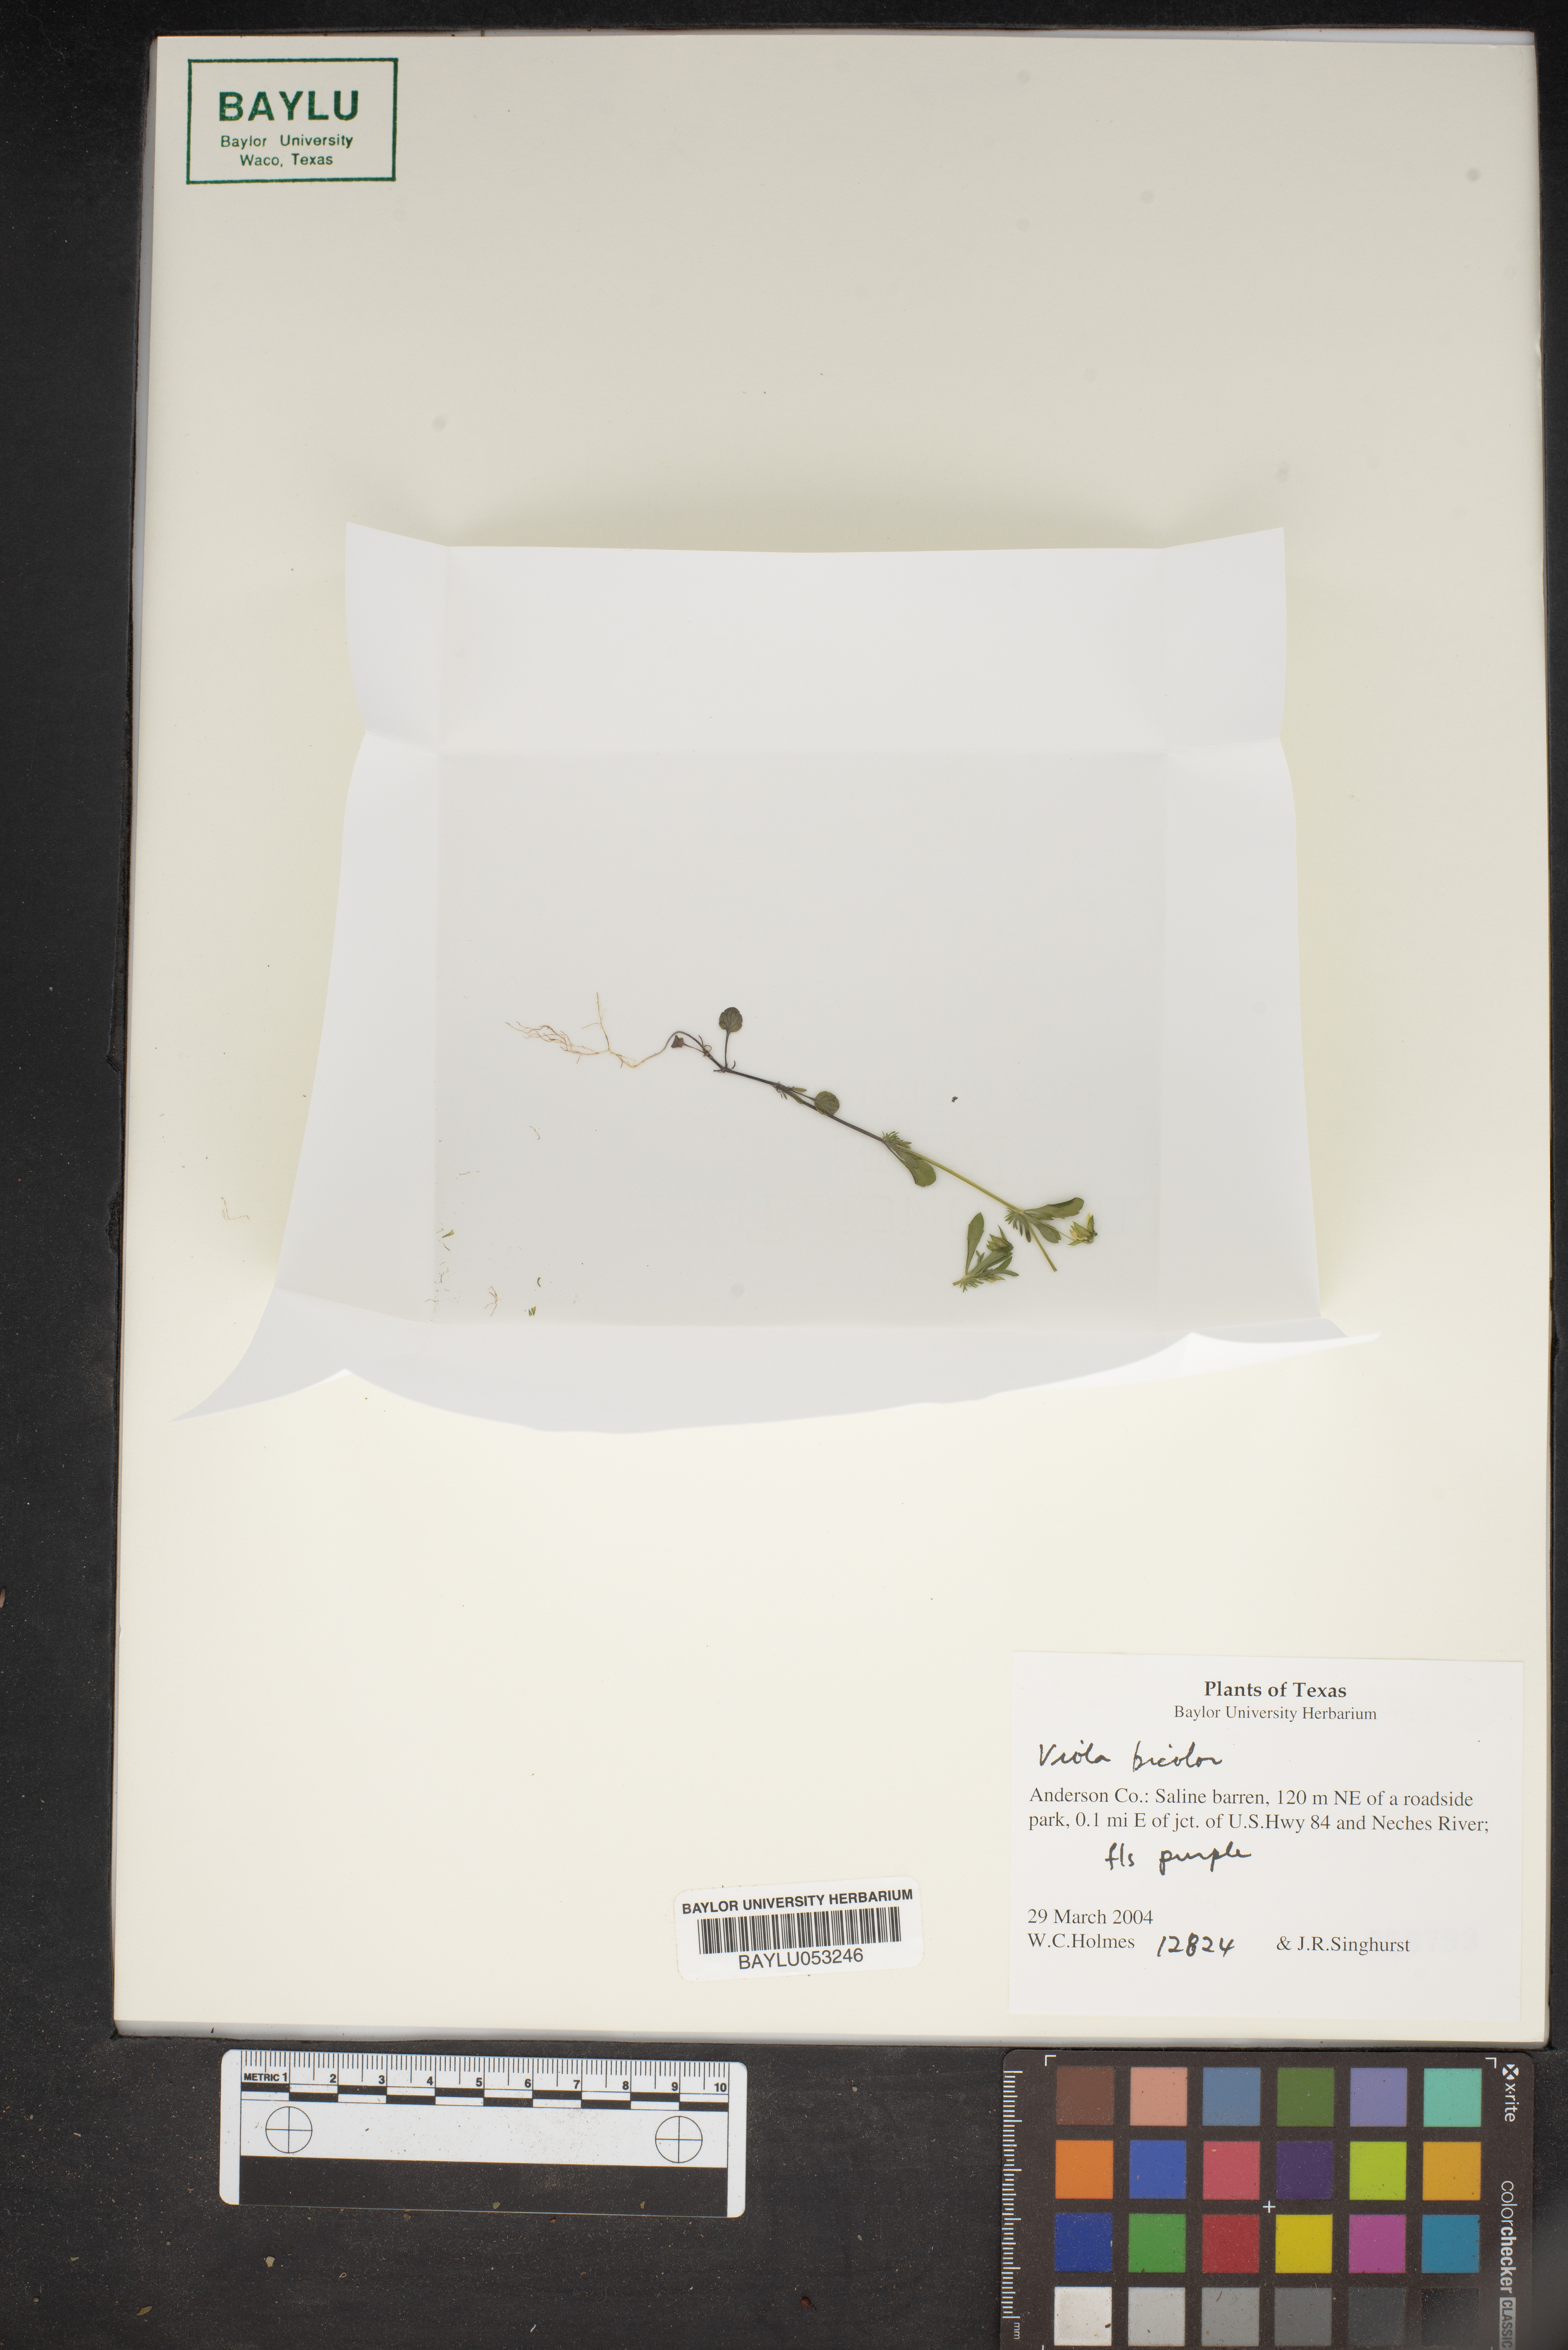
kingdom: Plantae
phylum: Tracheophyta
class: Magnoliopsida
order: Malpighiales
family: Violaceae
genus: Viola
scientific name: Viola rafinesquei
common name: American field pansy
